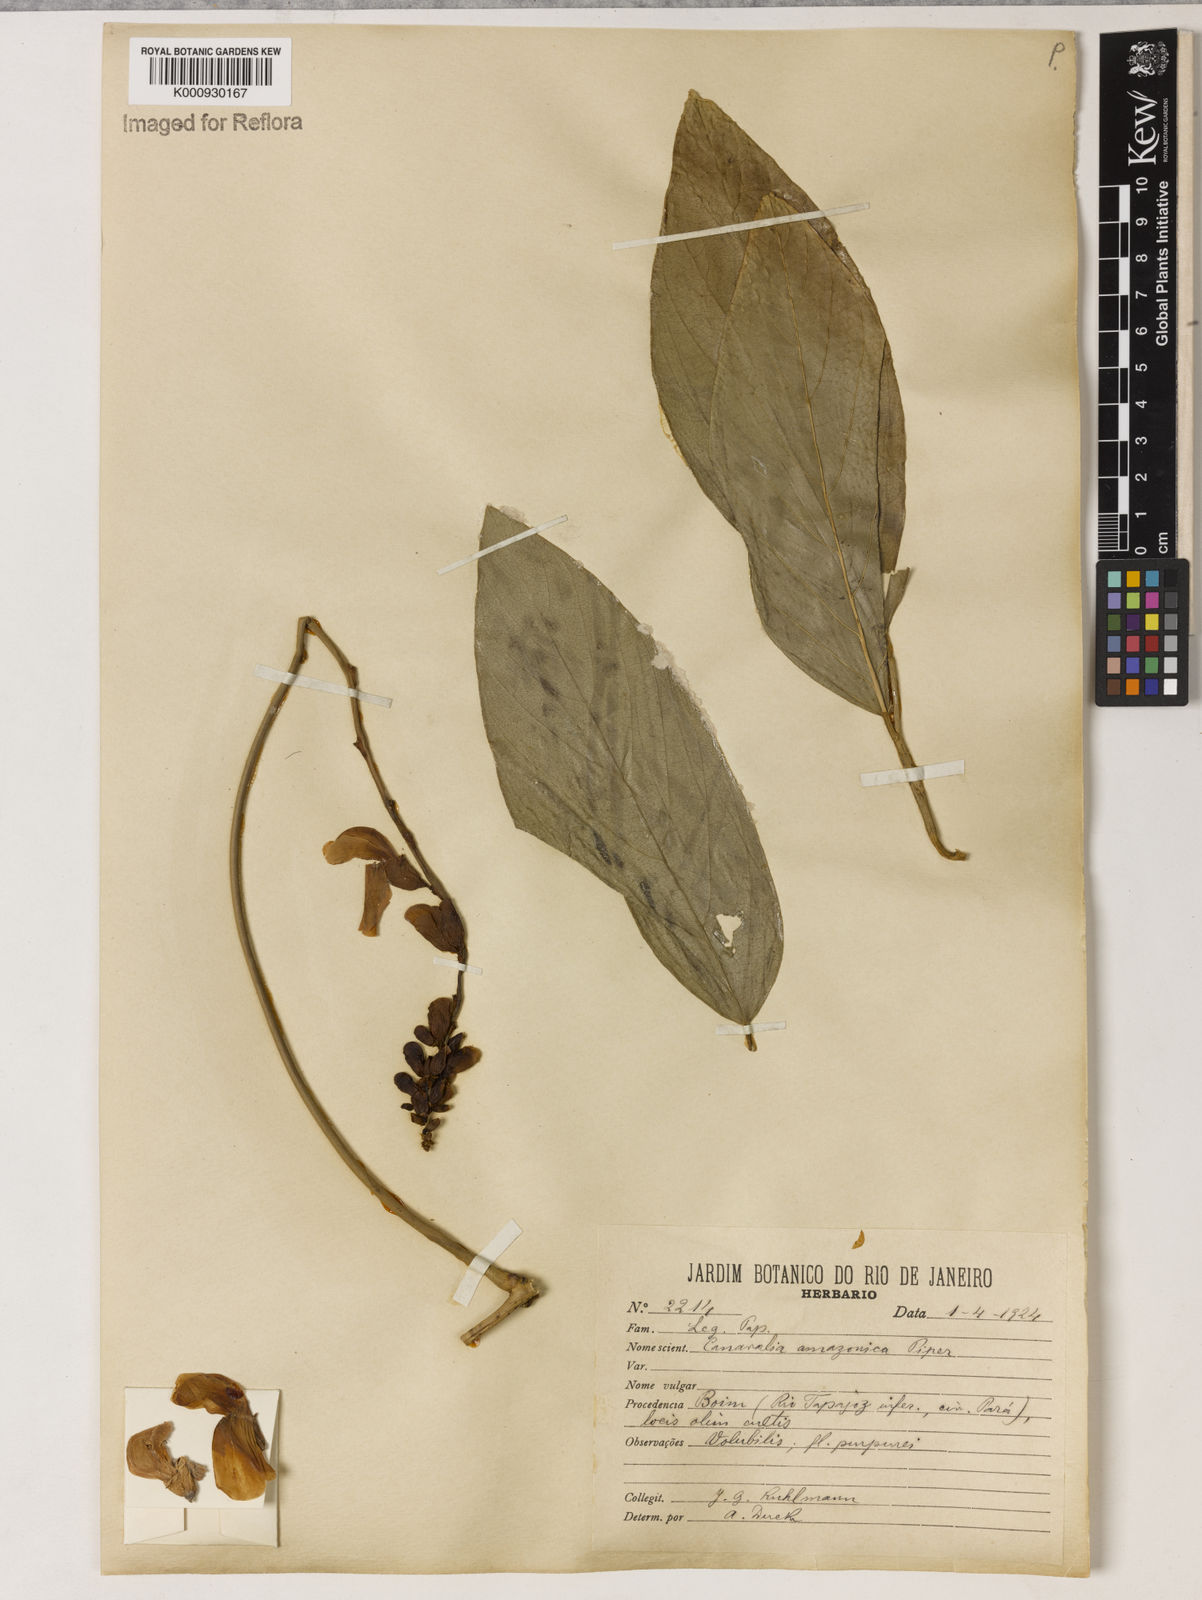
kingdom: Plantae
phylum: Tracheophyta
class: Magnoliopsida
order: Fabales
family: Fabaceae
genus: Canavalia
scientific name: Canavalia brasiliensis
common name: Barbicou-bean
